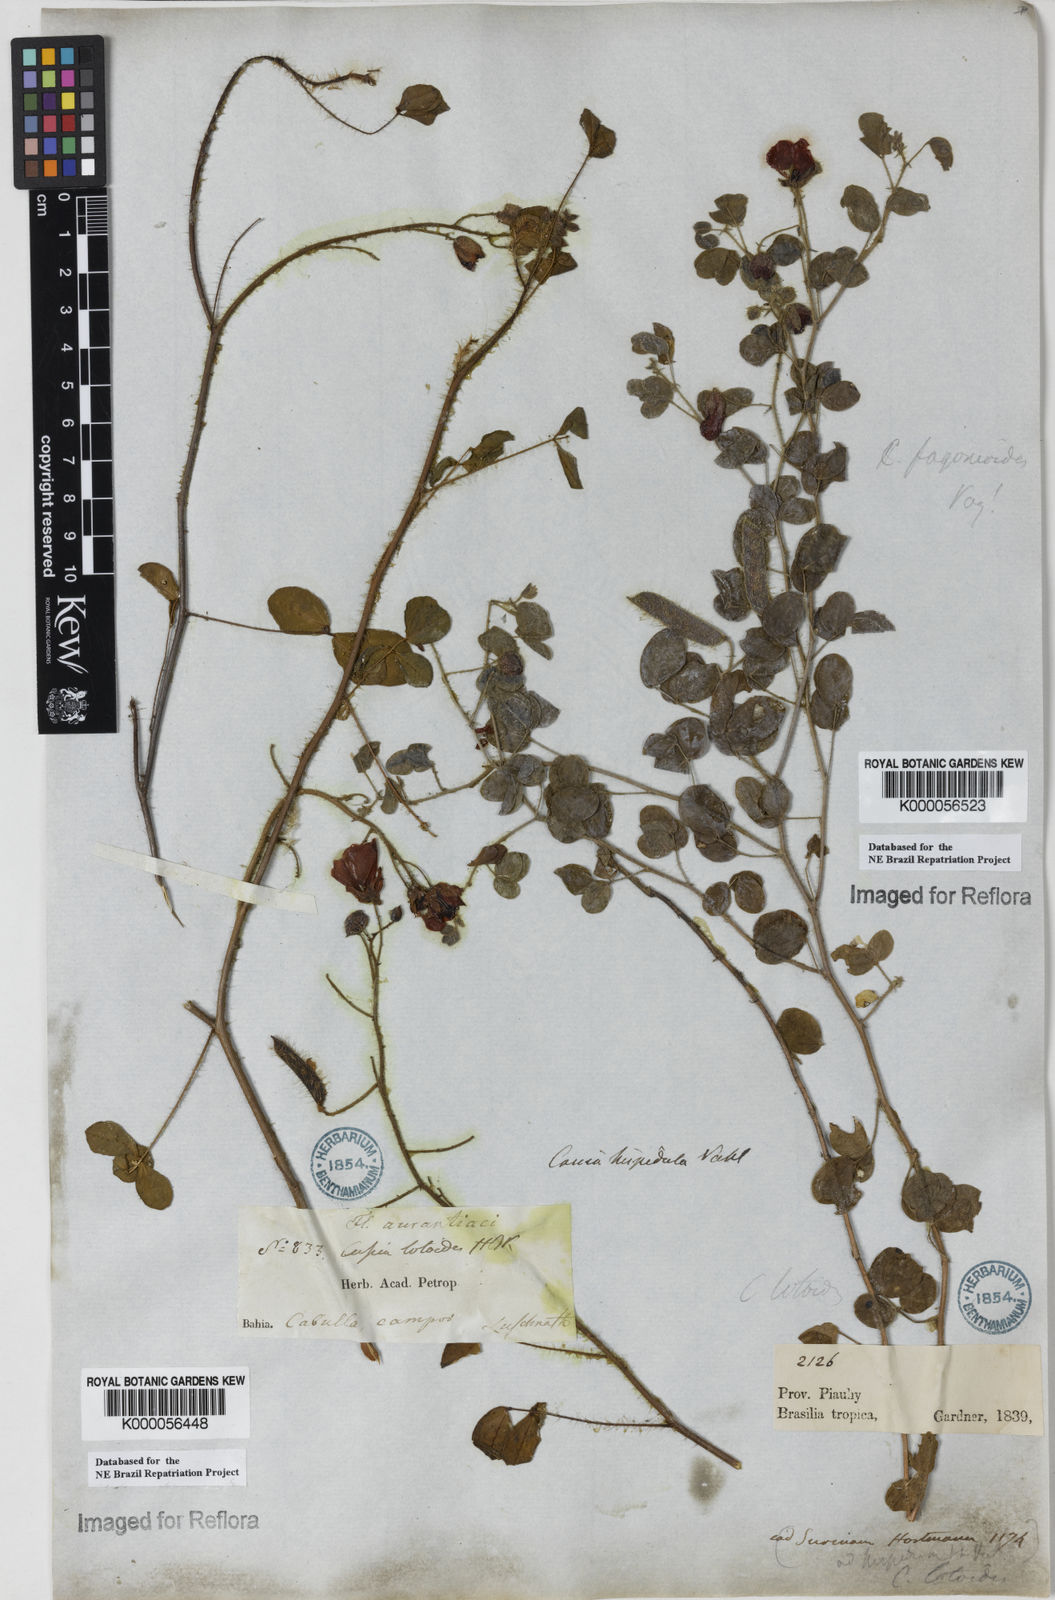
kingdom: Plantae
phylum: Tracheophyta
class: Magnoliopsida
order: Fabales
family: Fabaceae
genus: Chamaecrista
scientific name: Chamaecrista fagonioides
